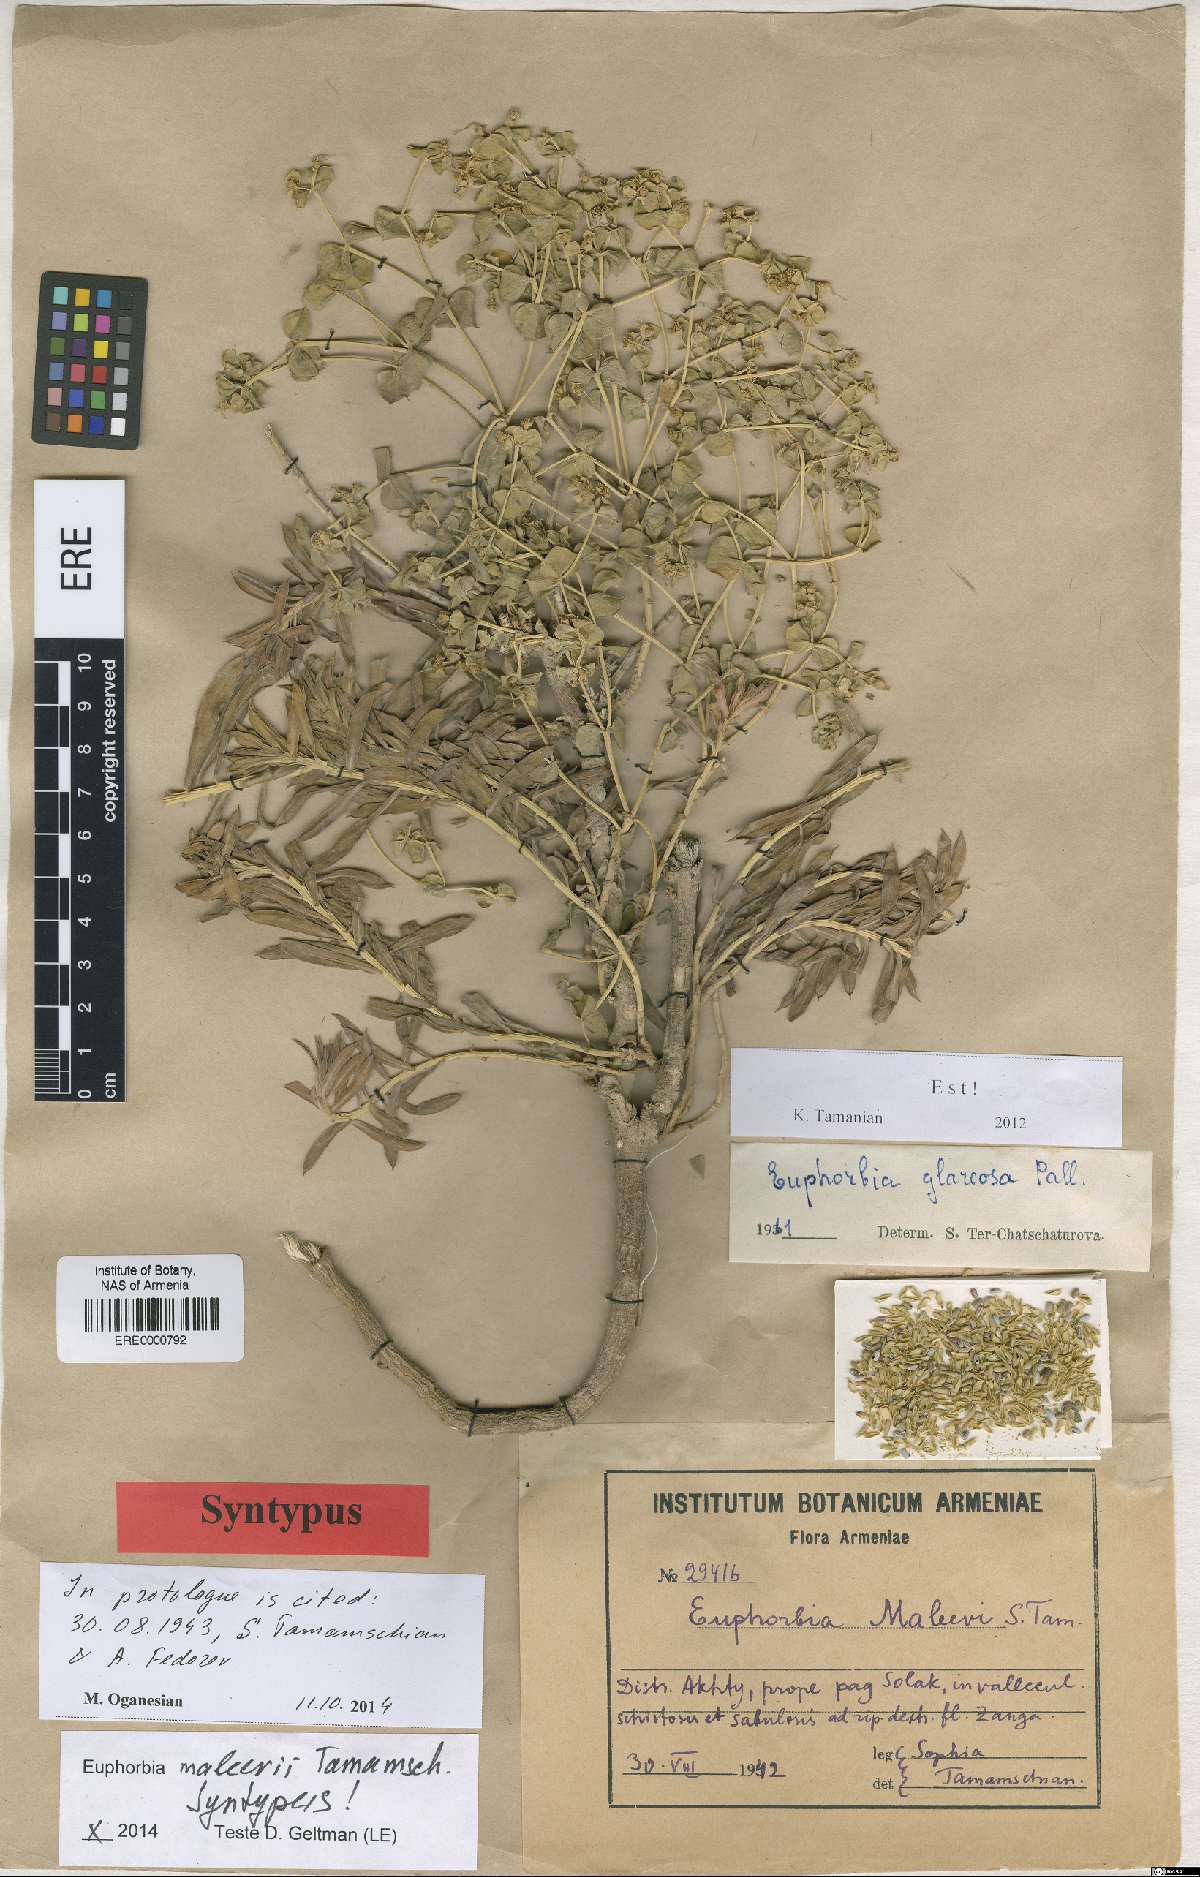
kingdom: Plantae
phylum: Tracheophyta
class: Magnoliopsida
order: Malpighiales
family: Euphorbiaceae
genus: Euphorbia
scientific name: Euphorbia glareosa
